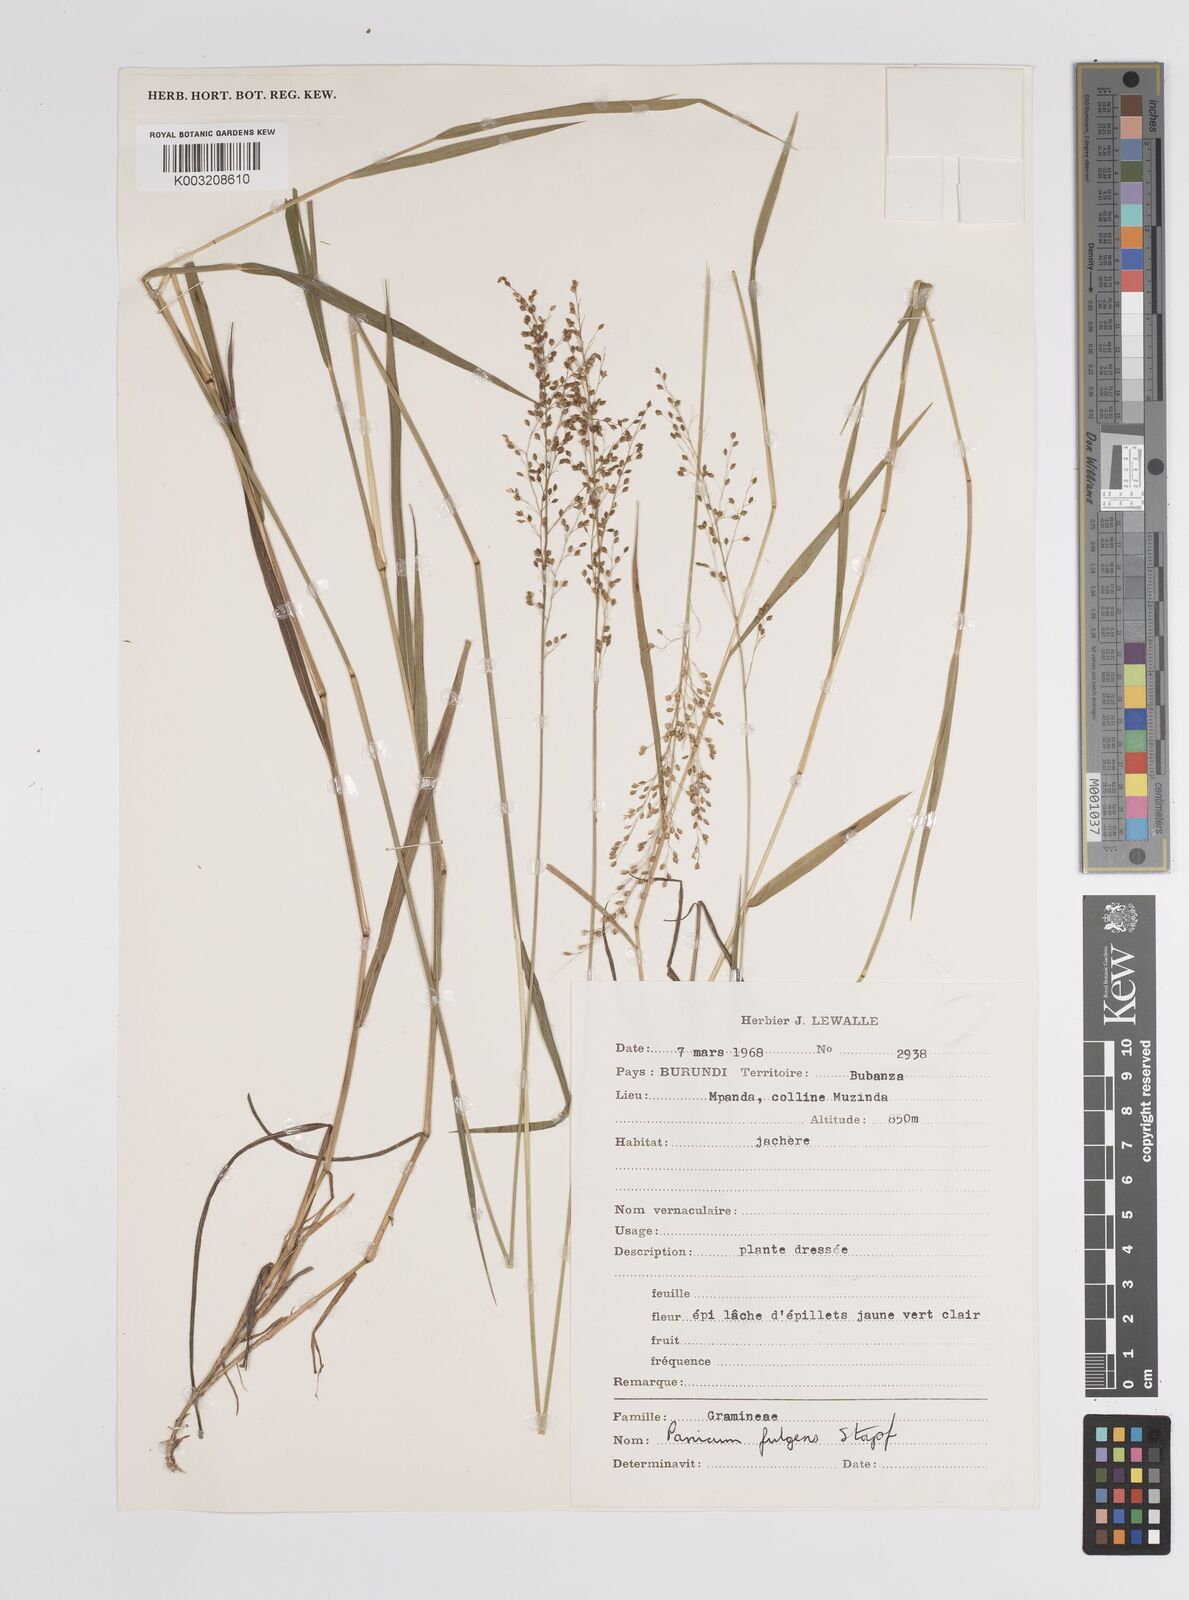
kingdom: Plantae
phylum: Tracheophyta
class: Liliopsida
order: Poales
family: Poaceae
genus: Trichanthecium
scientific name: Trichanthecium nervatum
